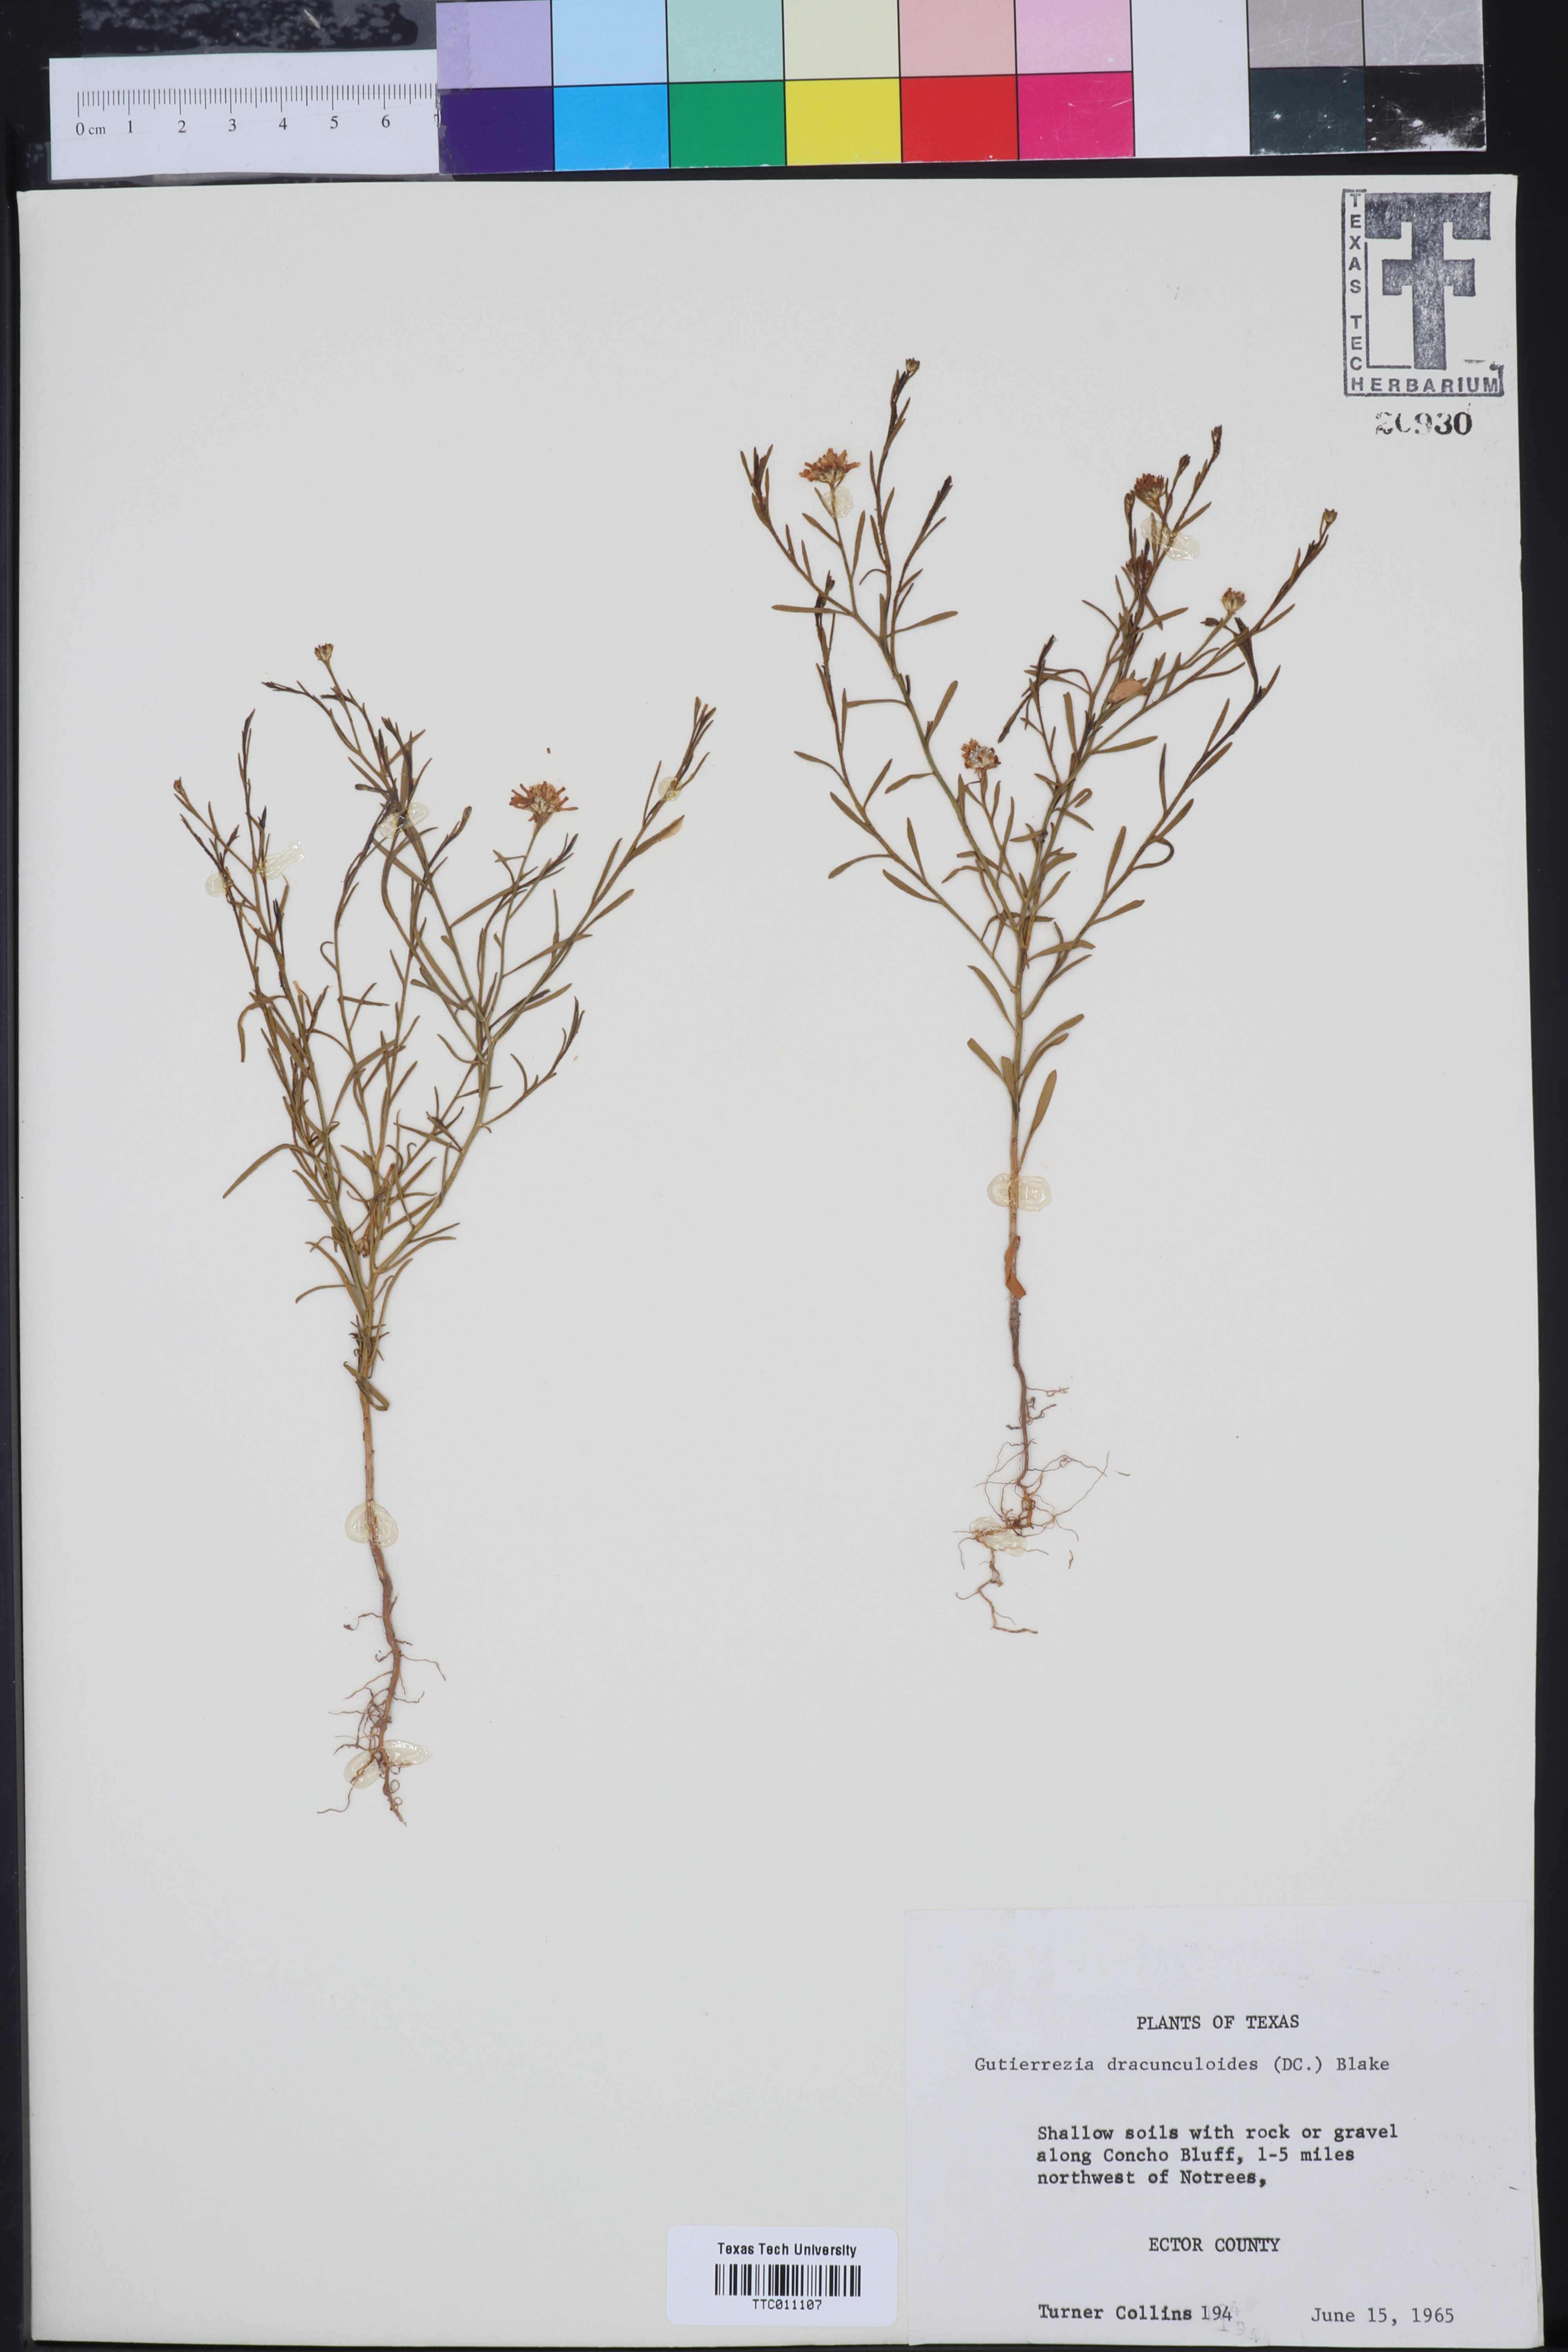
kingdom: Plantae
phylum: Tracheophyta
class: Magnoliopsida
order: Asterales
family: Asteraceae
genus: Amphiachyris
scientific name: Amphiachyris dracunculoides
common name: Broomweed
